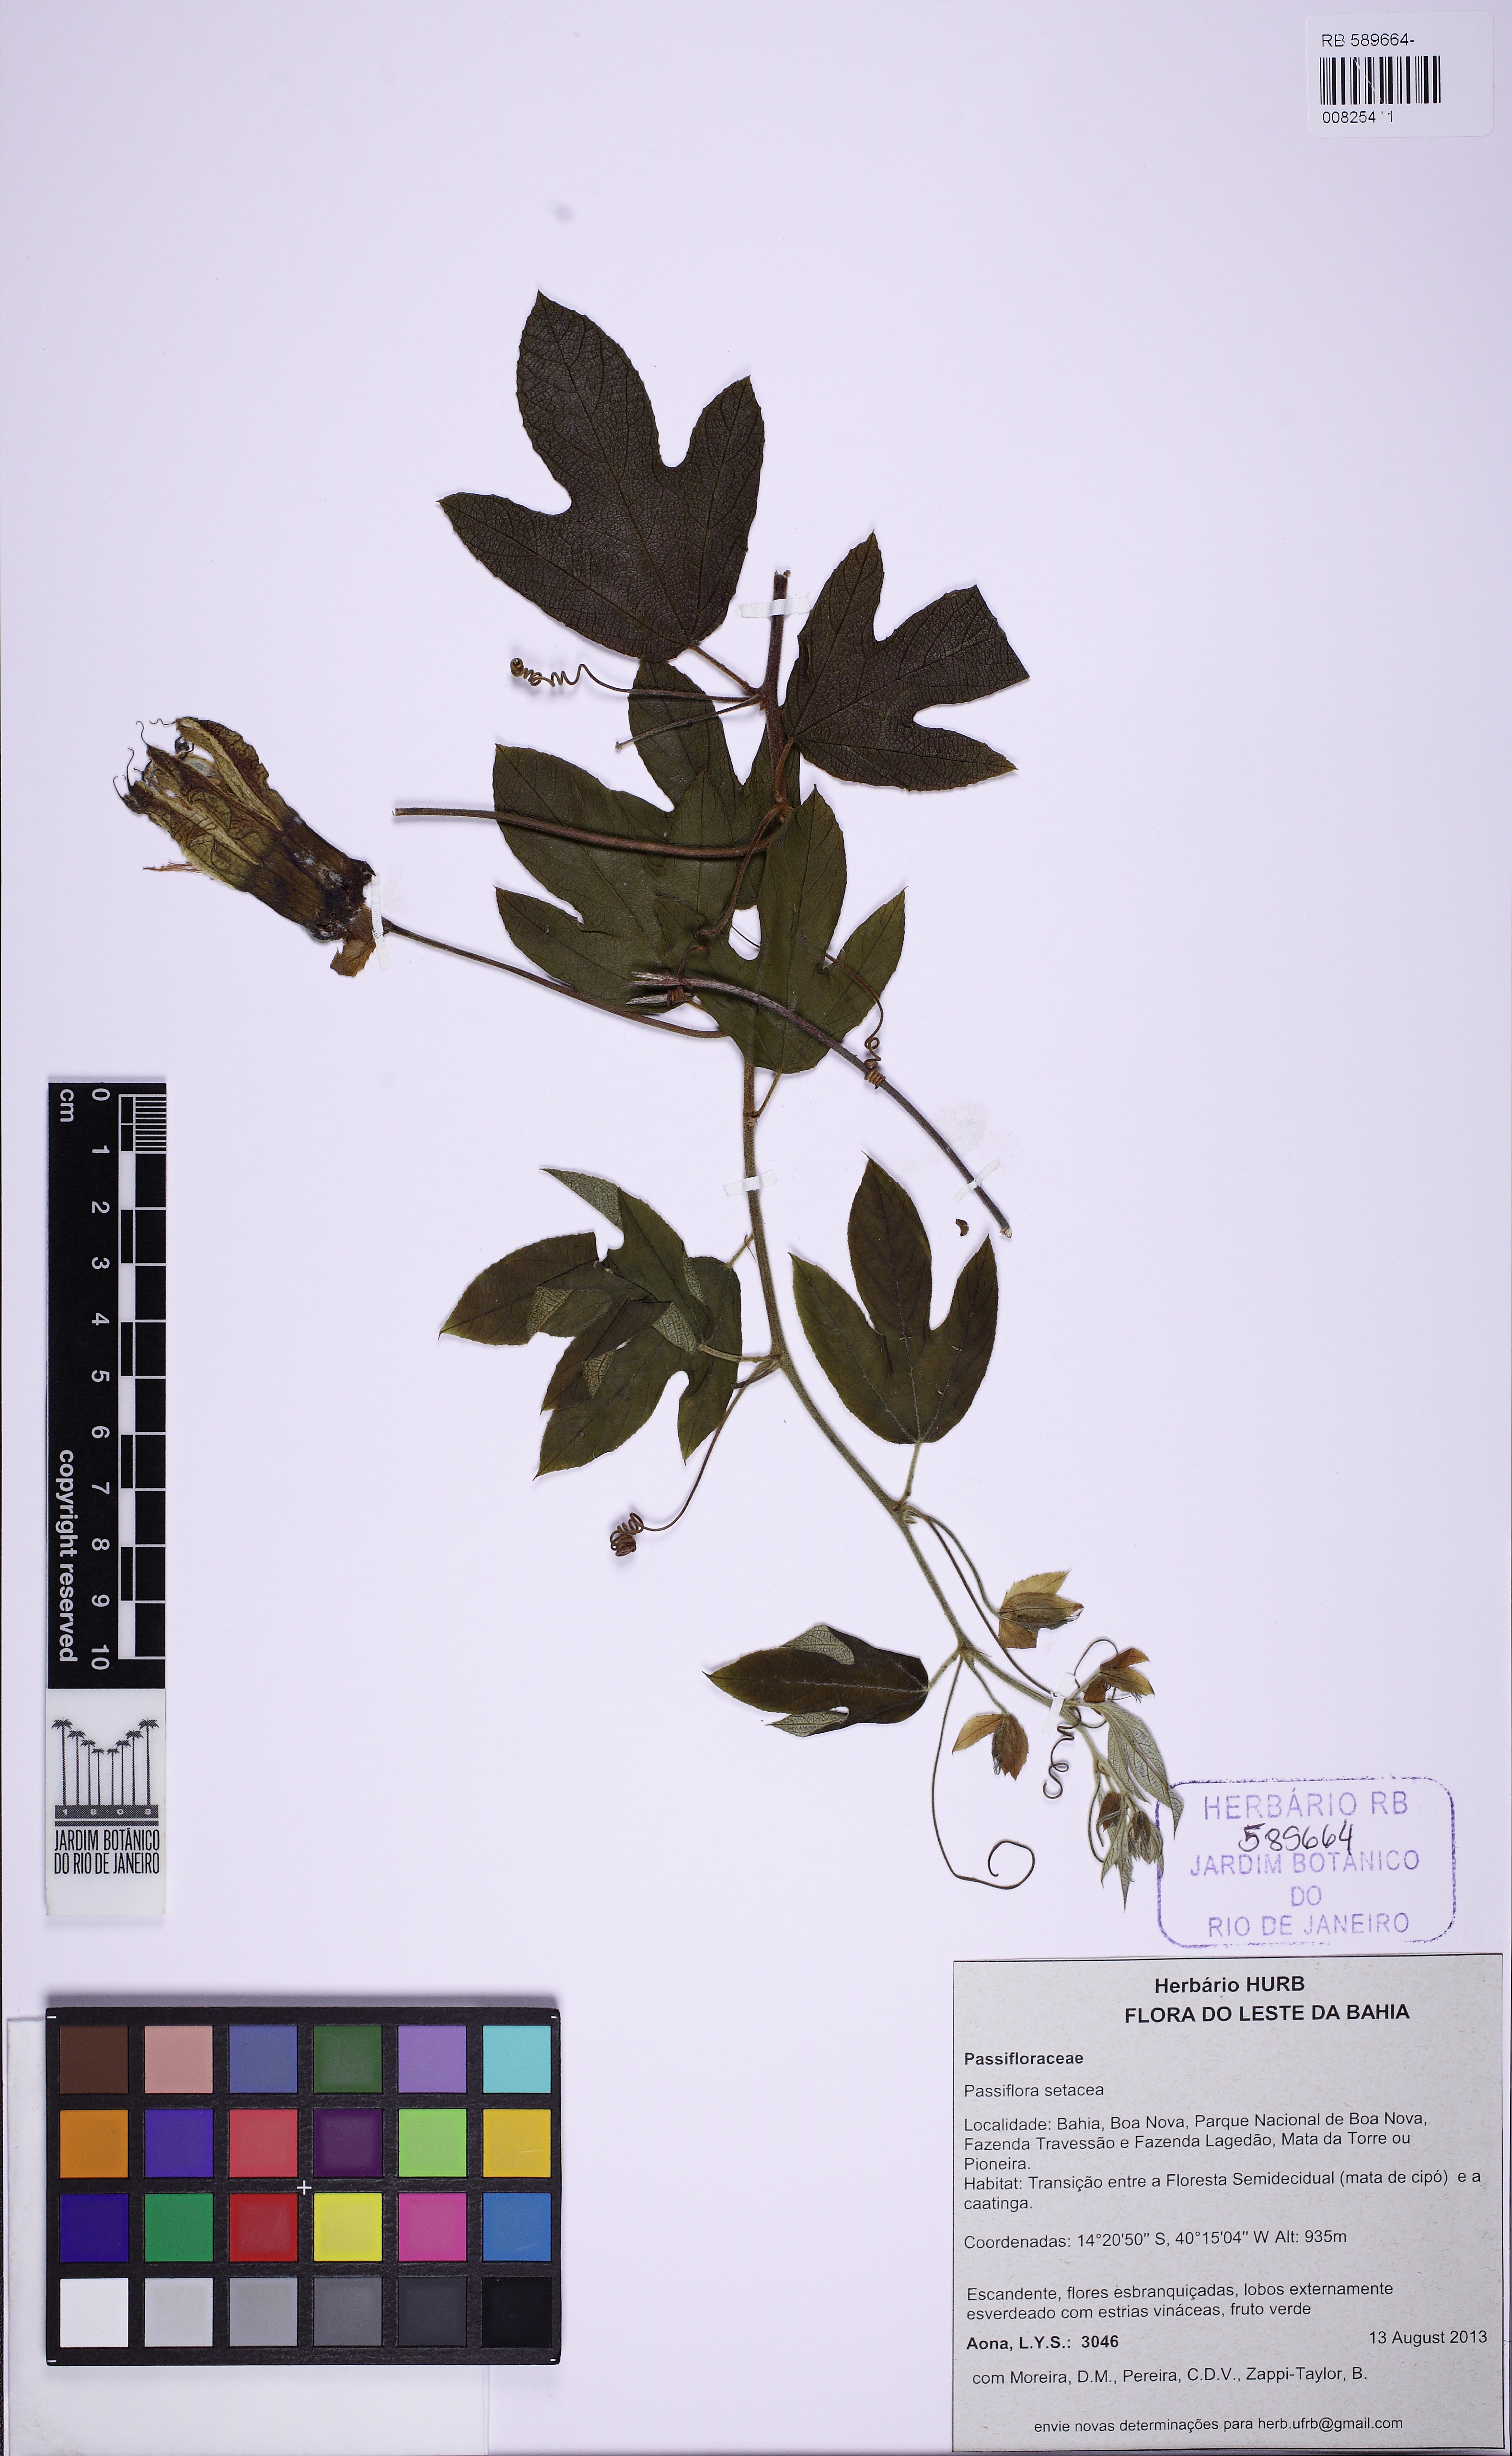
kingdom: Plantae
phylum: Tracheophyta
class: Magnoliopsida
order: Malpighiales
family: Passifloraceae
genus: Passiflora
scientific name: Passiflora setacea
